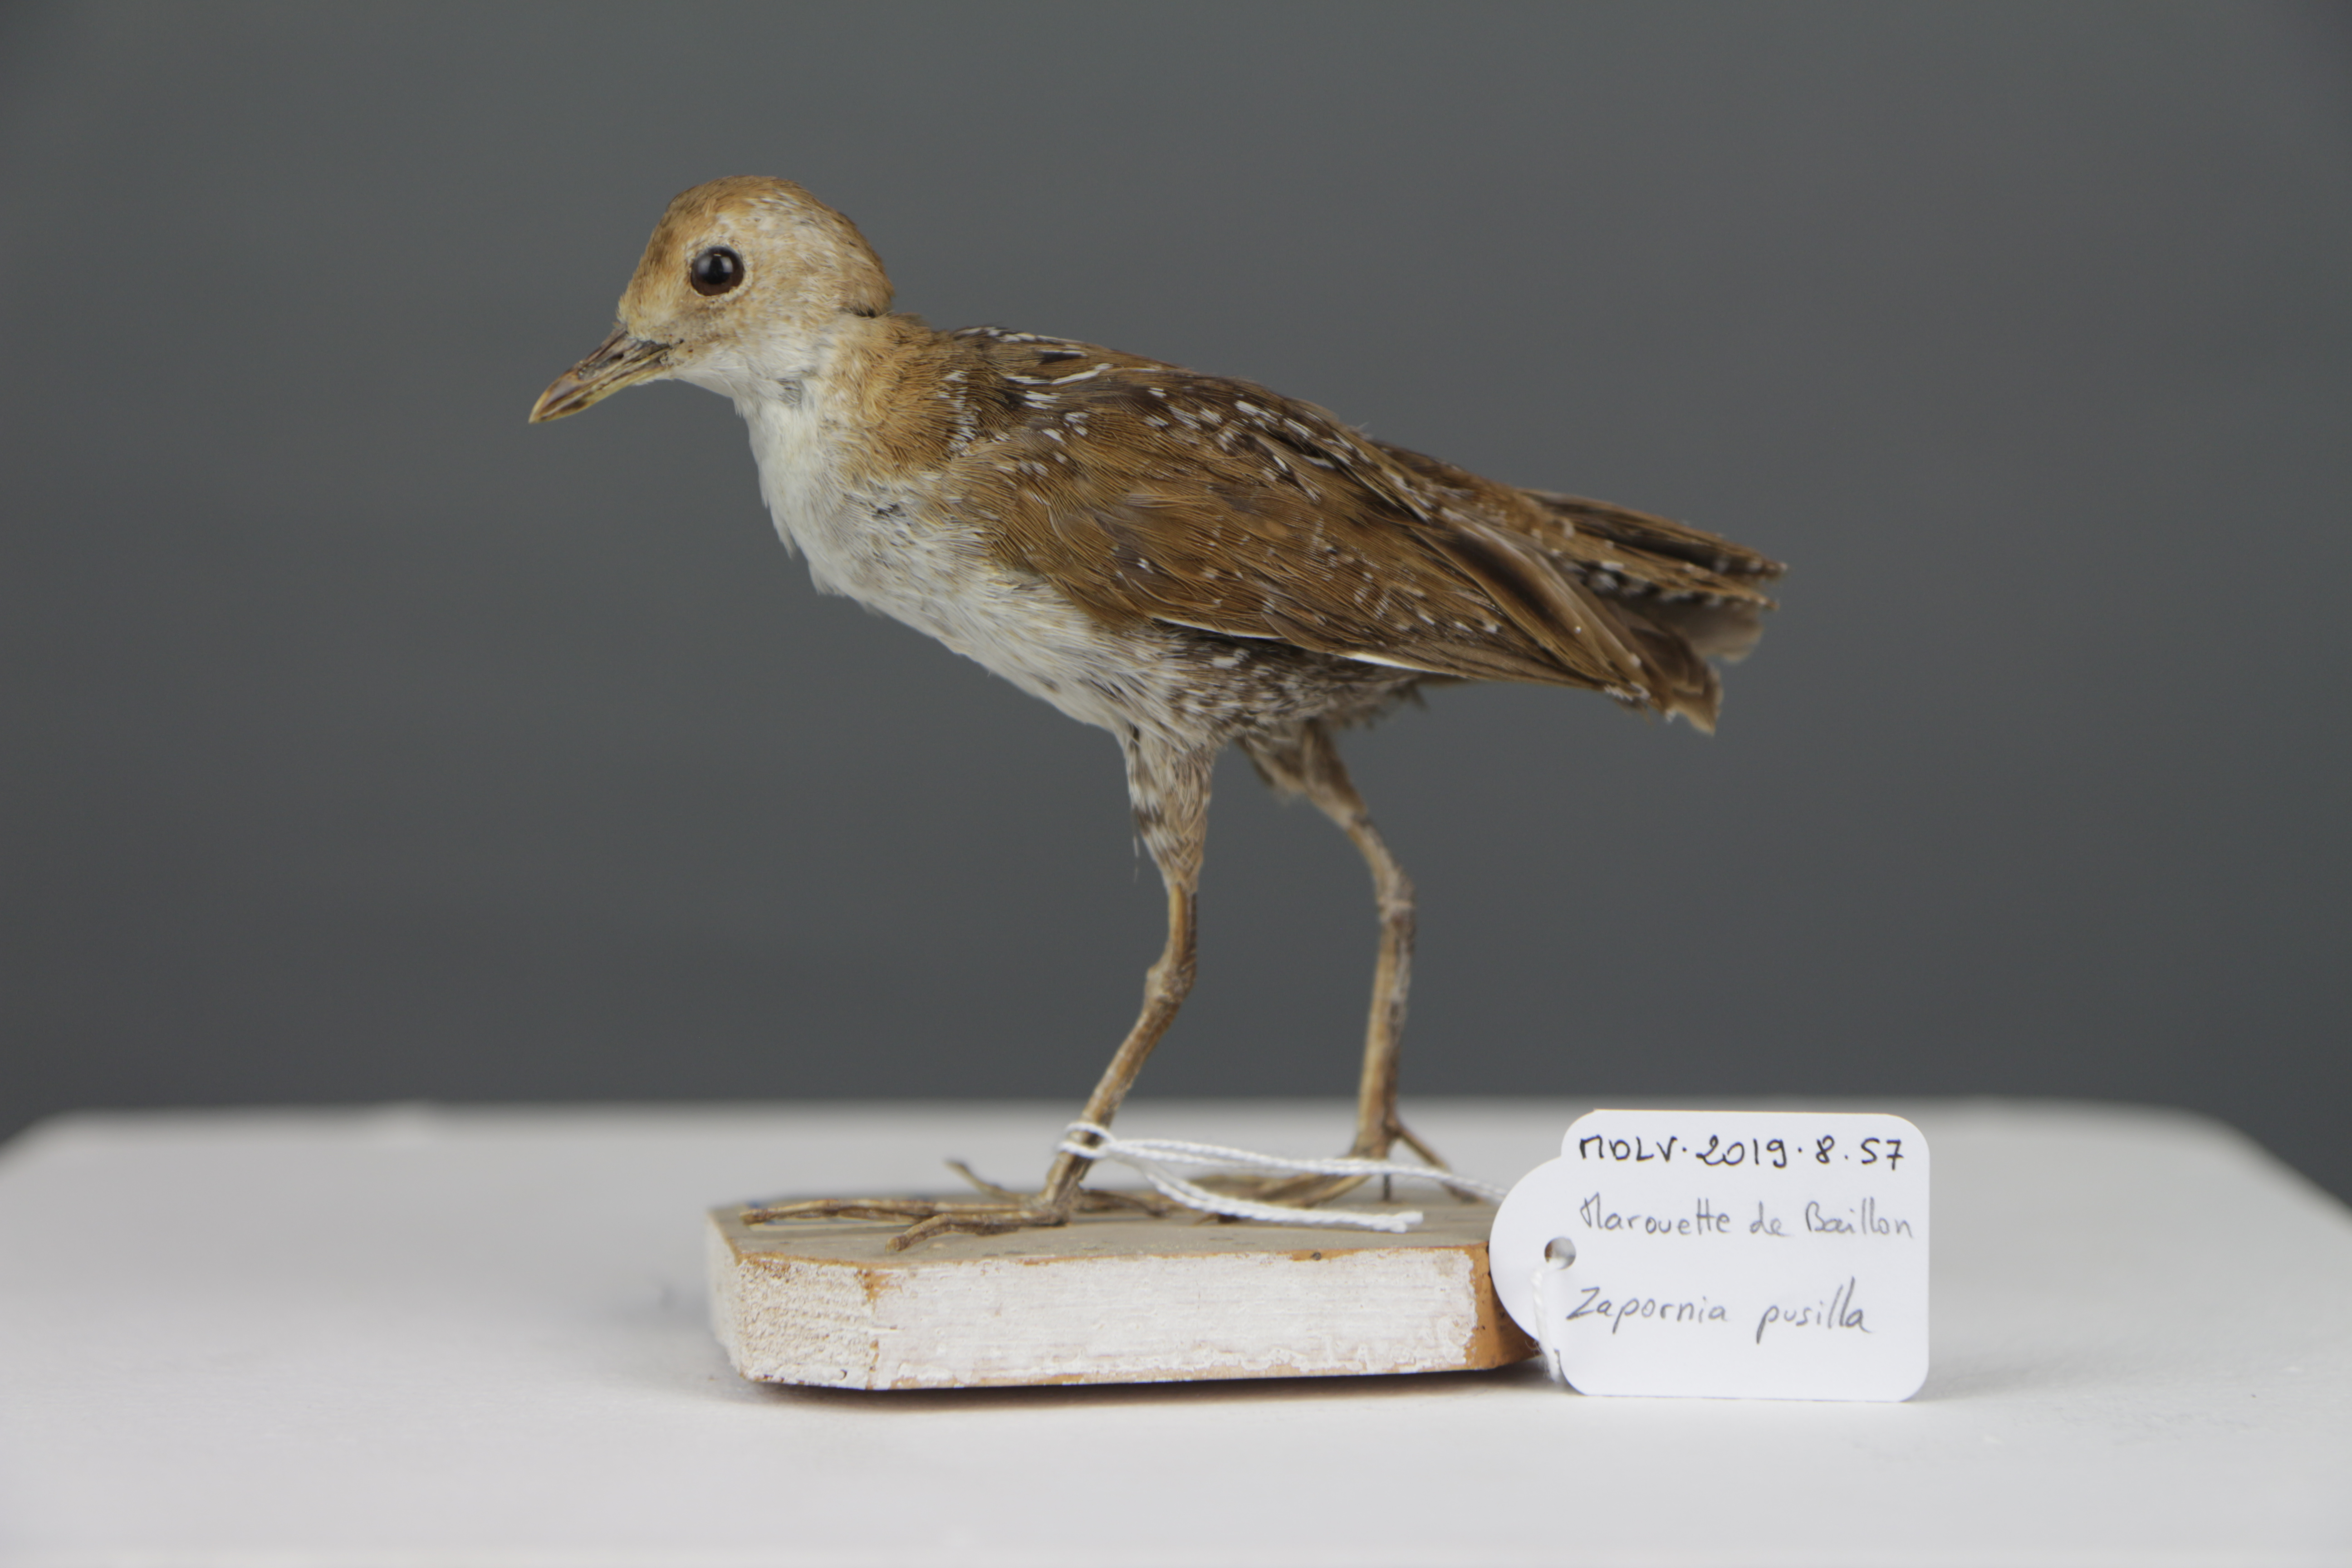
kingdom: Animalia
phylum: Chordata
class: Aves
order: Gruiformes
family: Rallidae
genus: Porzana
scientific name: Porzana pusilla
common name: Baillon's crake
